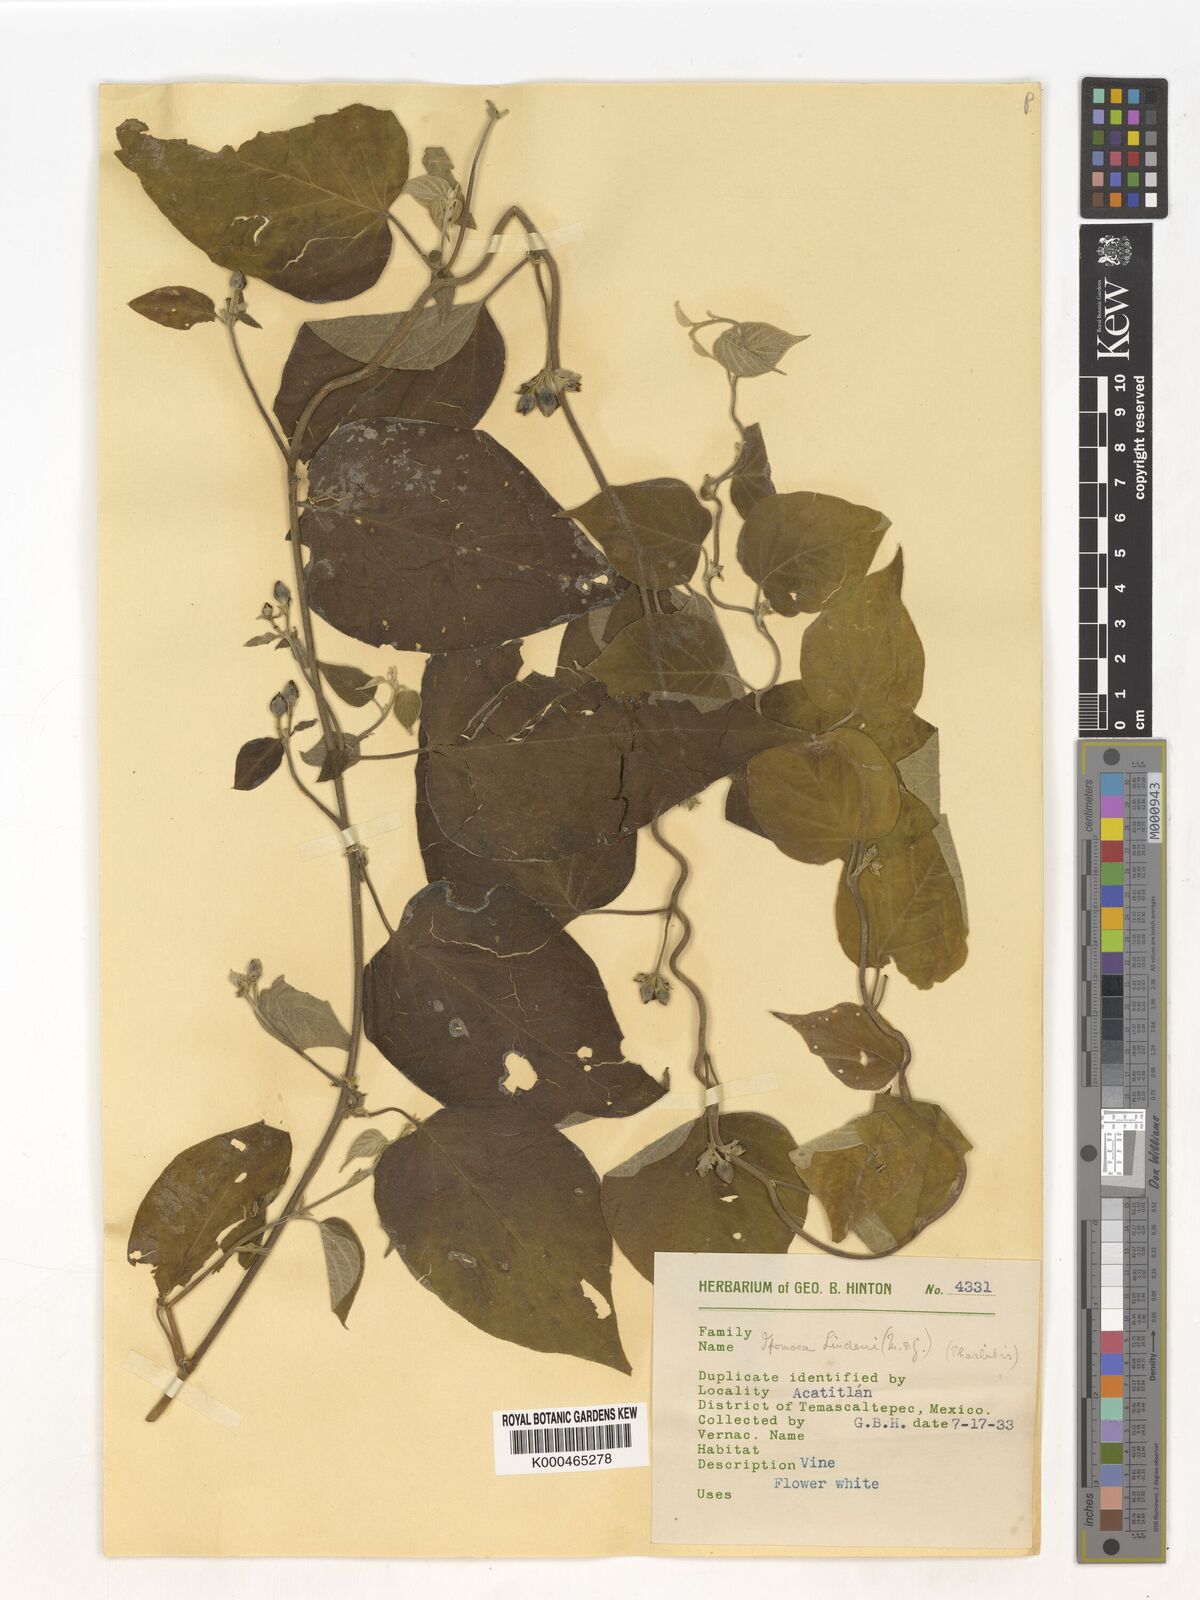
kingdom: Plantae
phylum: Tracheophyta
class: Magnoliopsida
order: Solanales
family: Convolvulaceae
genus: Ipomoea
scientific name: Ipomoea lindenii
